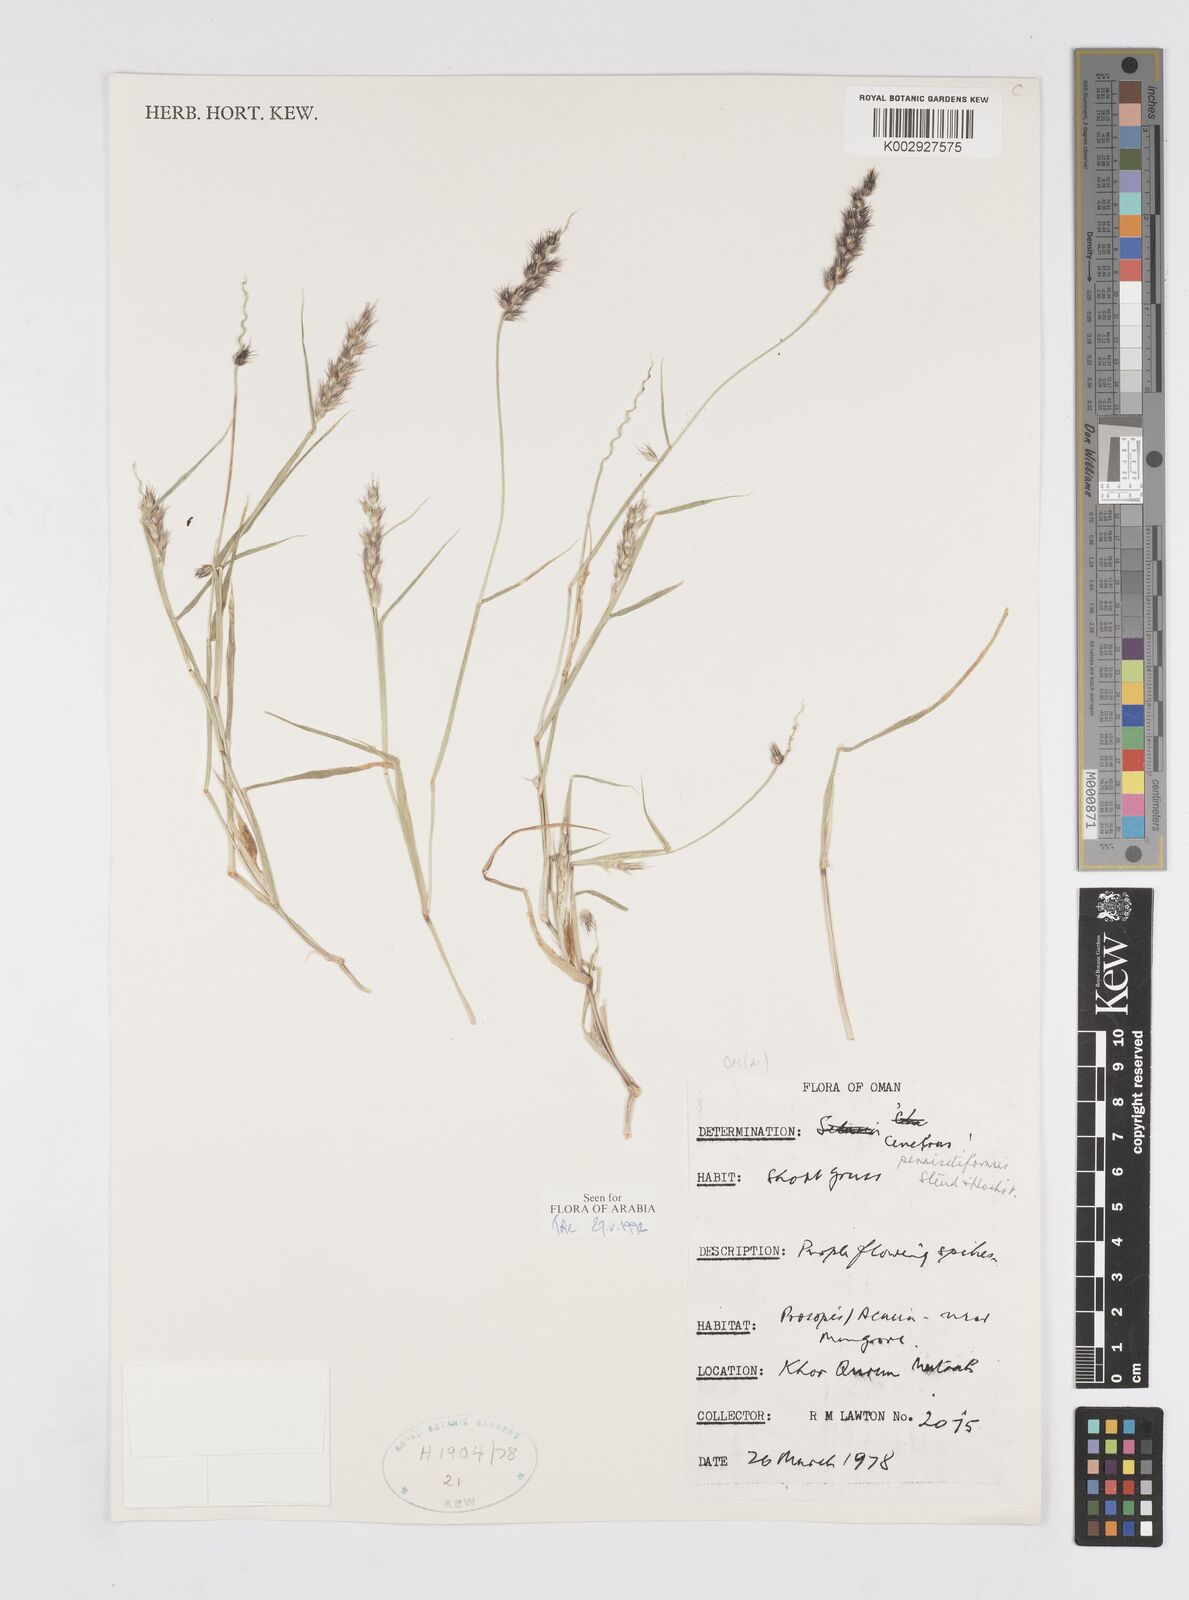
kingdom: Plantae
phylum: Tracheophyta
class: Liliopsida
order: Poales
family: Poaceae
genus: Cenchrus
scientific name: Cenchrus pennisetiformis
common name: Cloncurry
